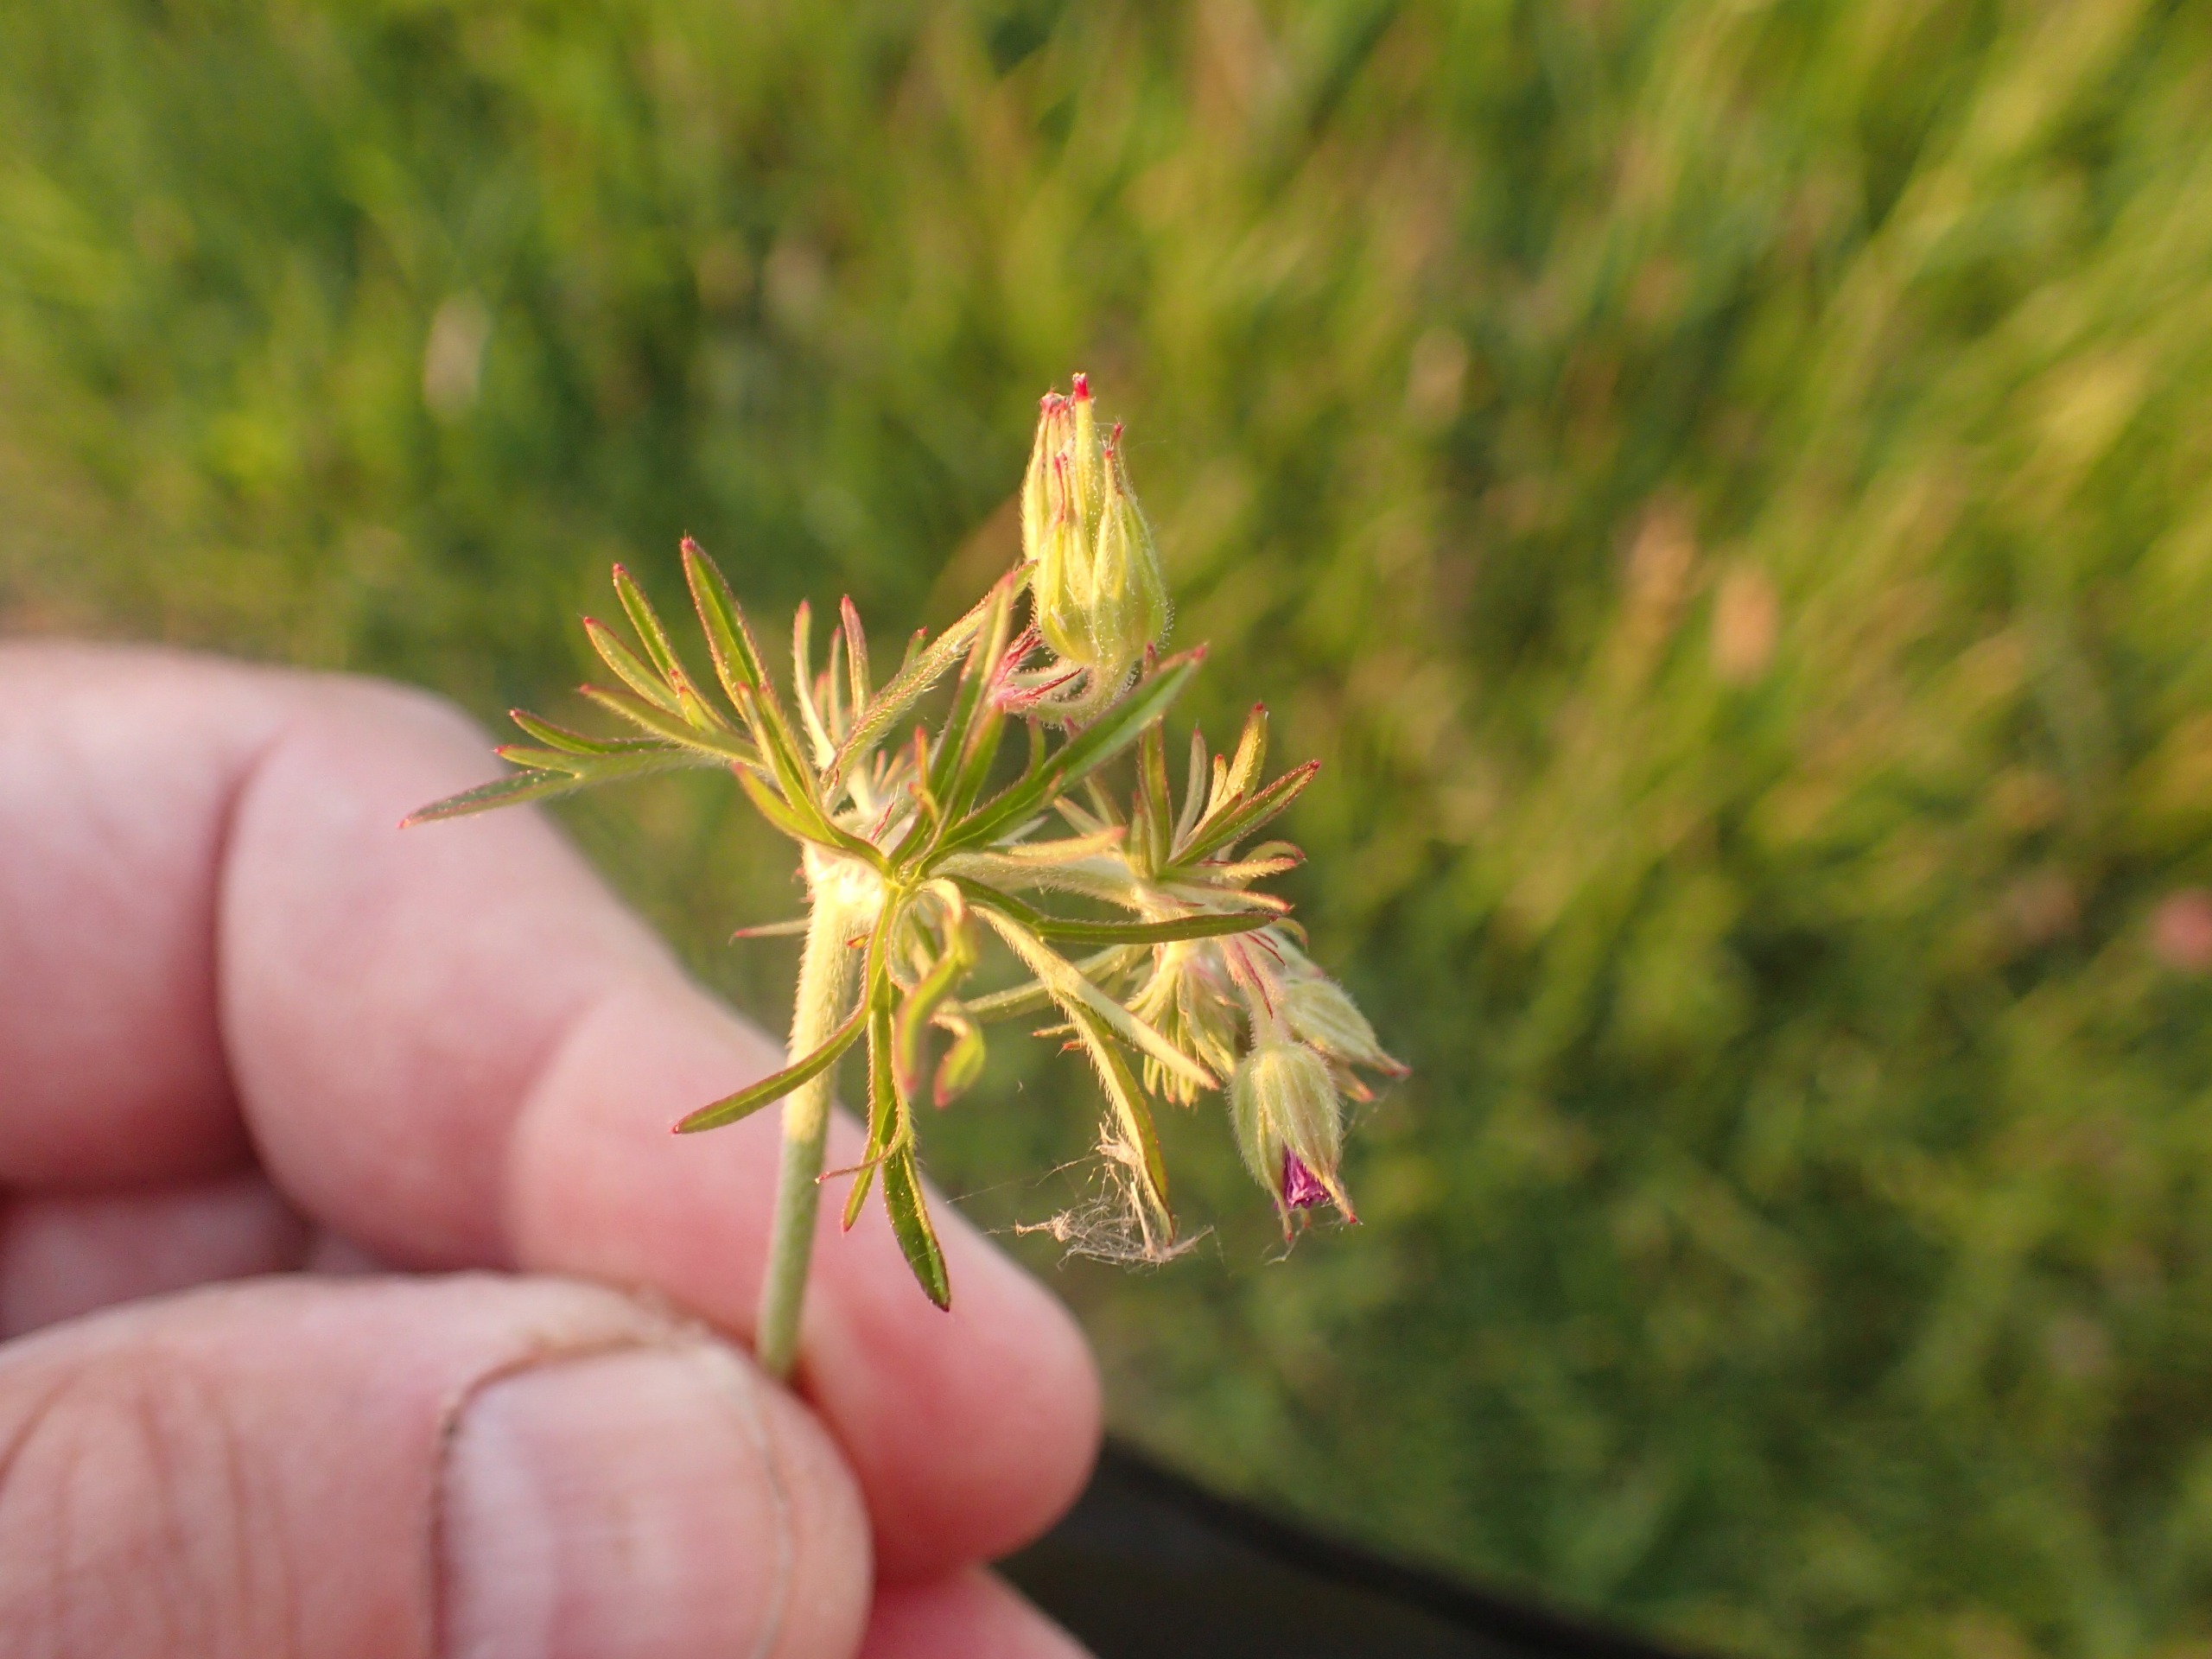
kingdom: Plantae
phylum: Tracheophyta
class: Magnoliopsida
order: Geraniales
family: Geraniaceae
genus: Geranium
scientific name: Geranium dissectum
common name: Kløftet storkenæb
